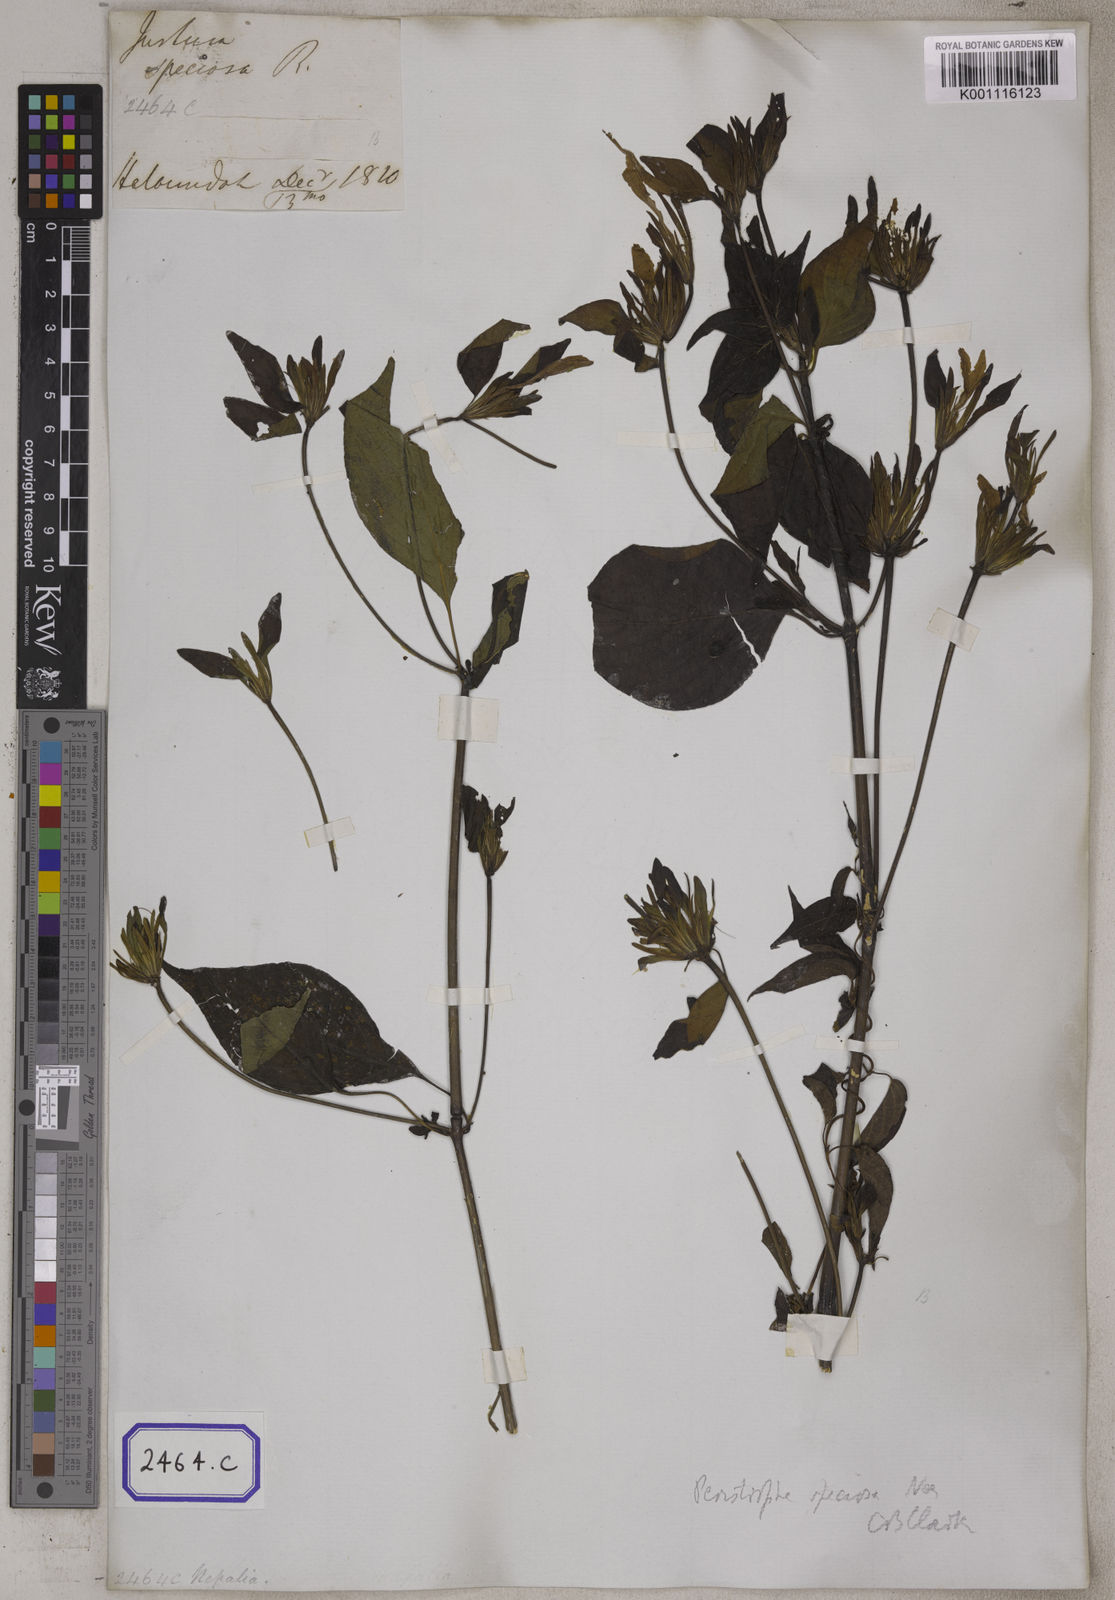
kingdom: Plantae
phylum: Tracheophyta
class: Magnoliopsida
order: Lamiales
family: Acanthaceae
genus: Dicliptera
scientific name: Dicliptera raui
